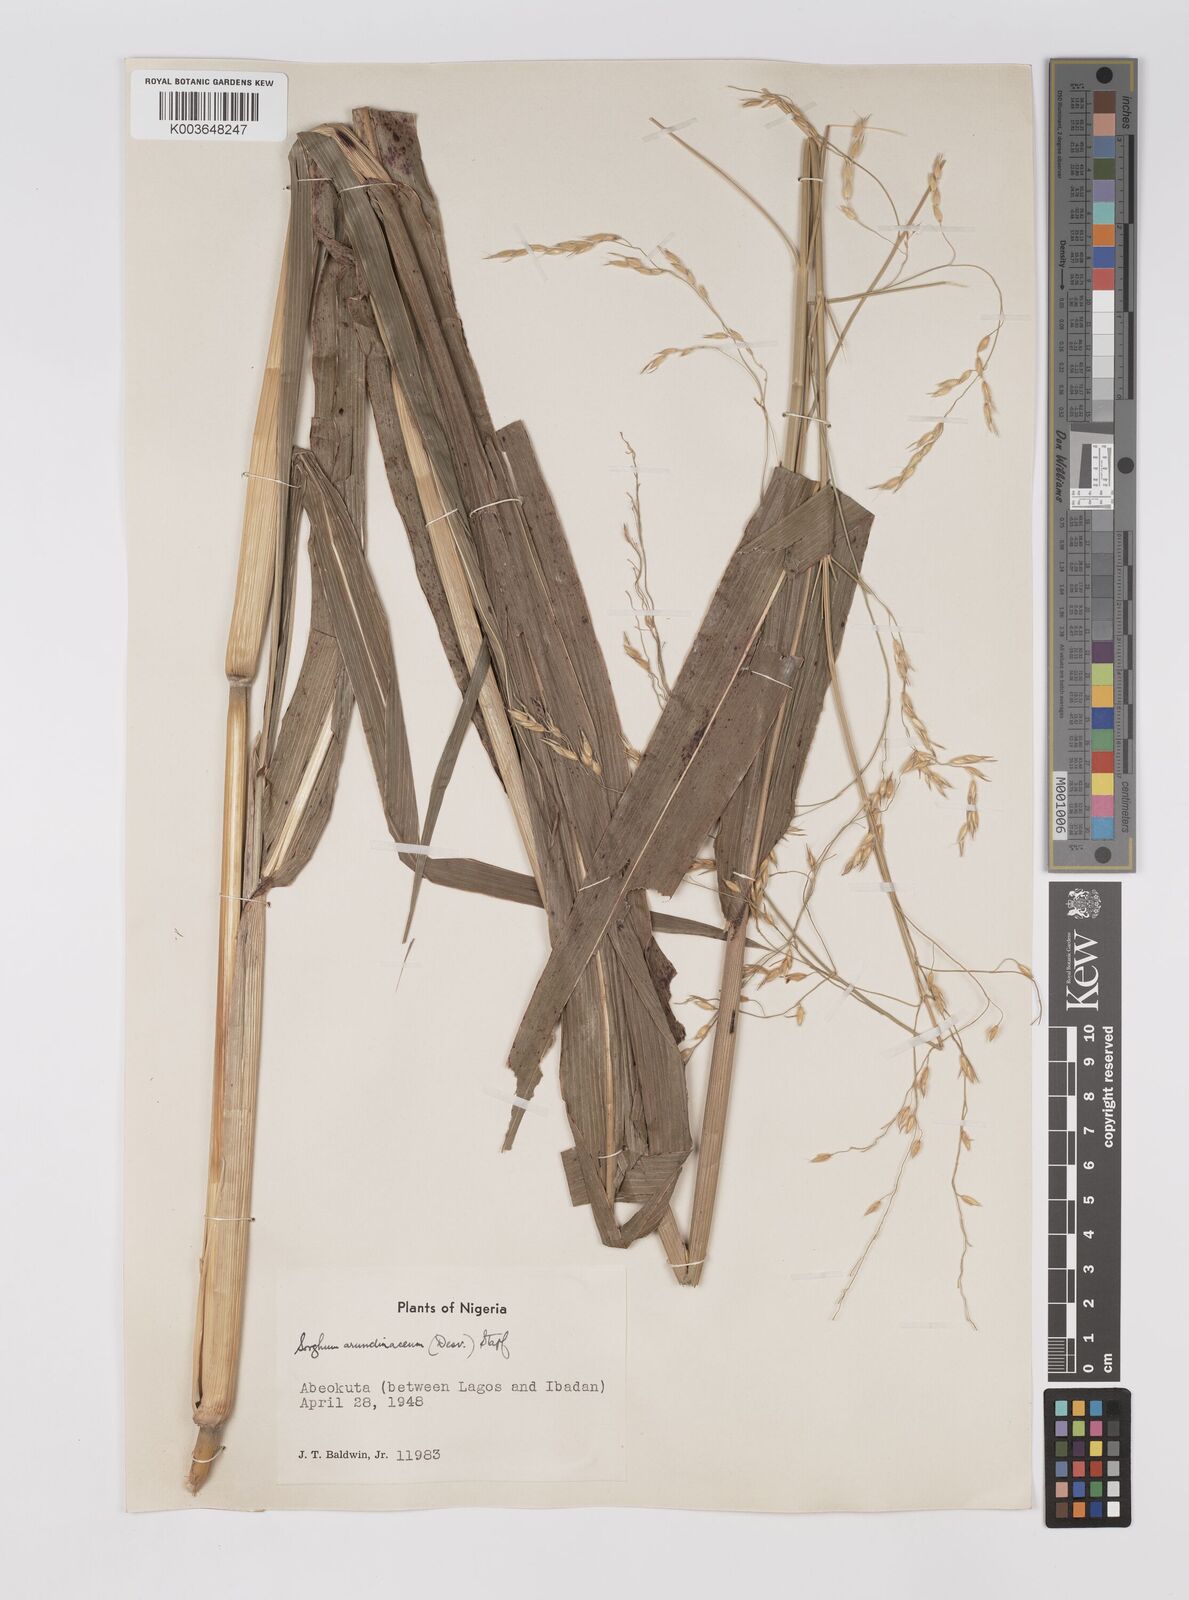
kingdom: Plantae
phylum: Tracheophyta
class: Liliopsida
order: Poales
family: Poaceae
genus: Sorghum
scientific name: Sorghum arundinaceum
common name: Sorghum
